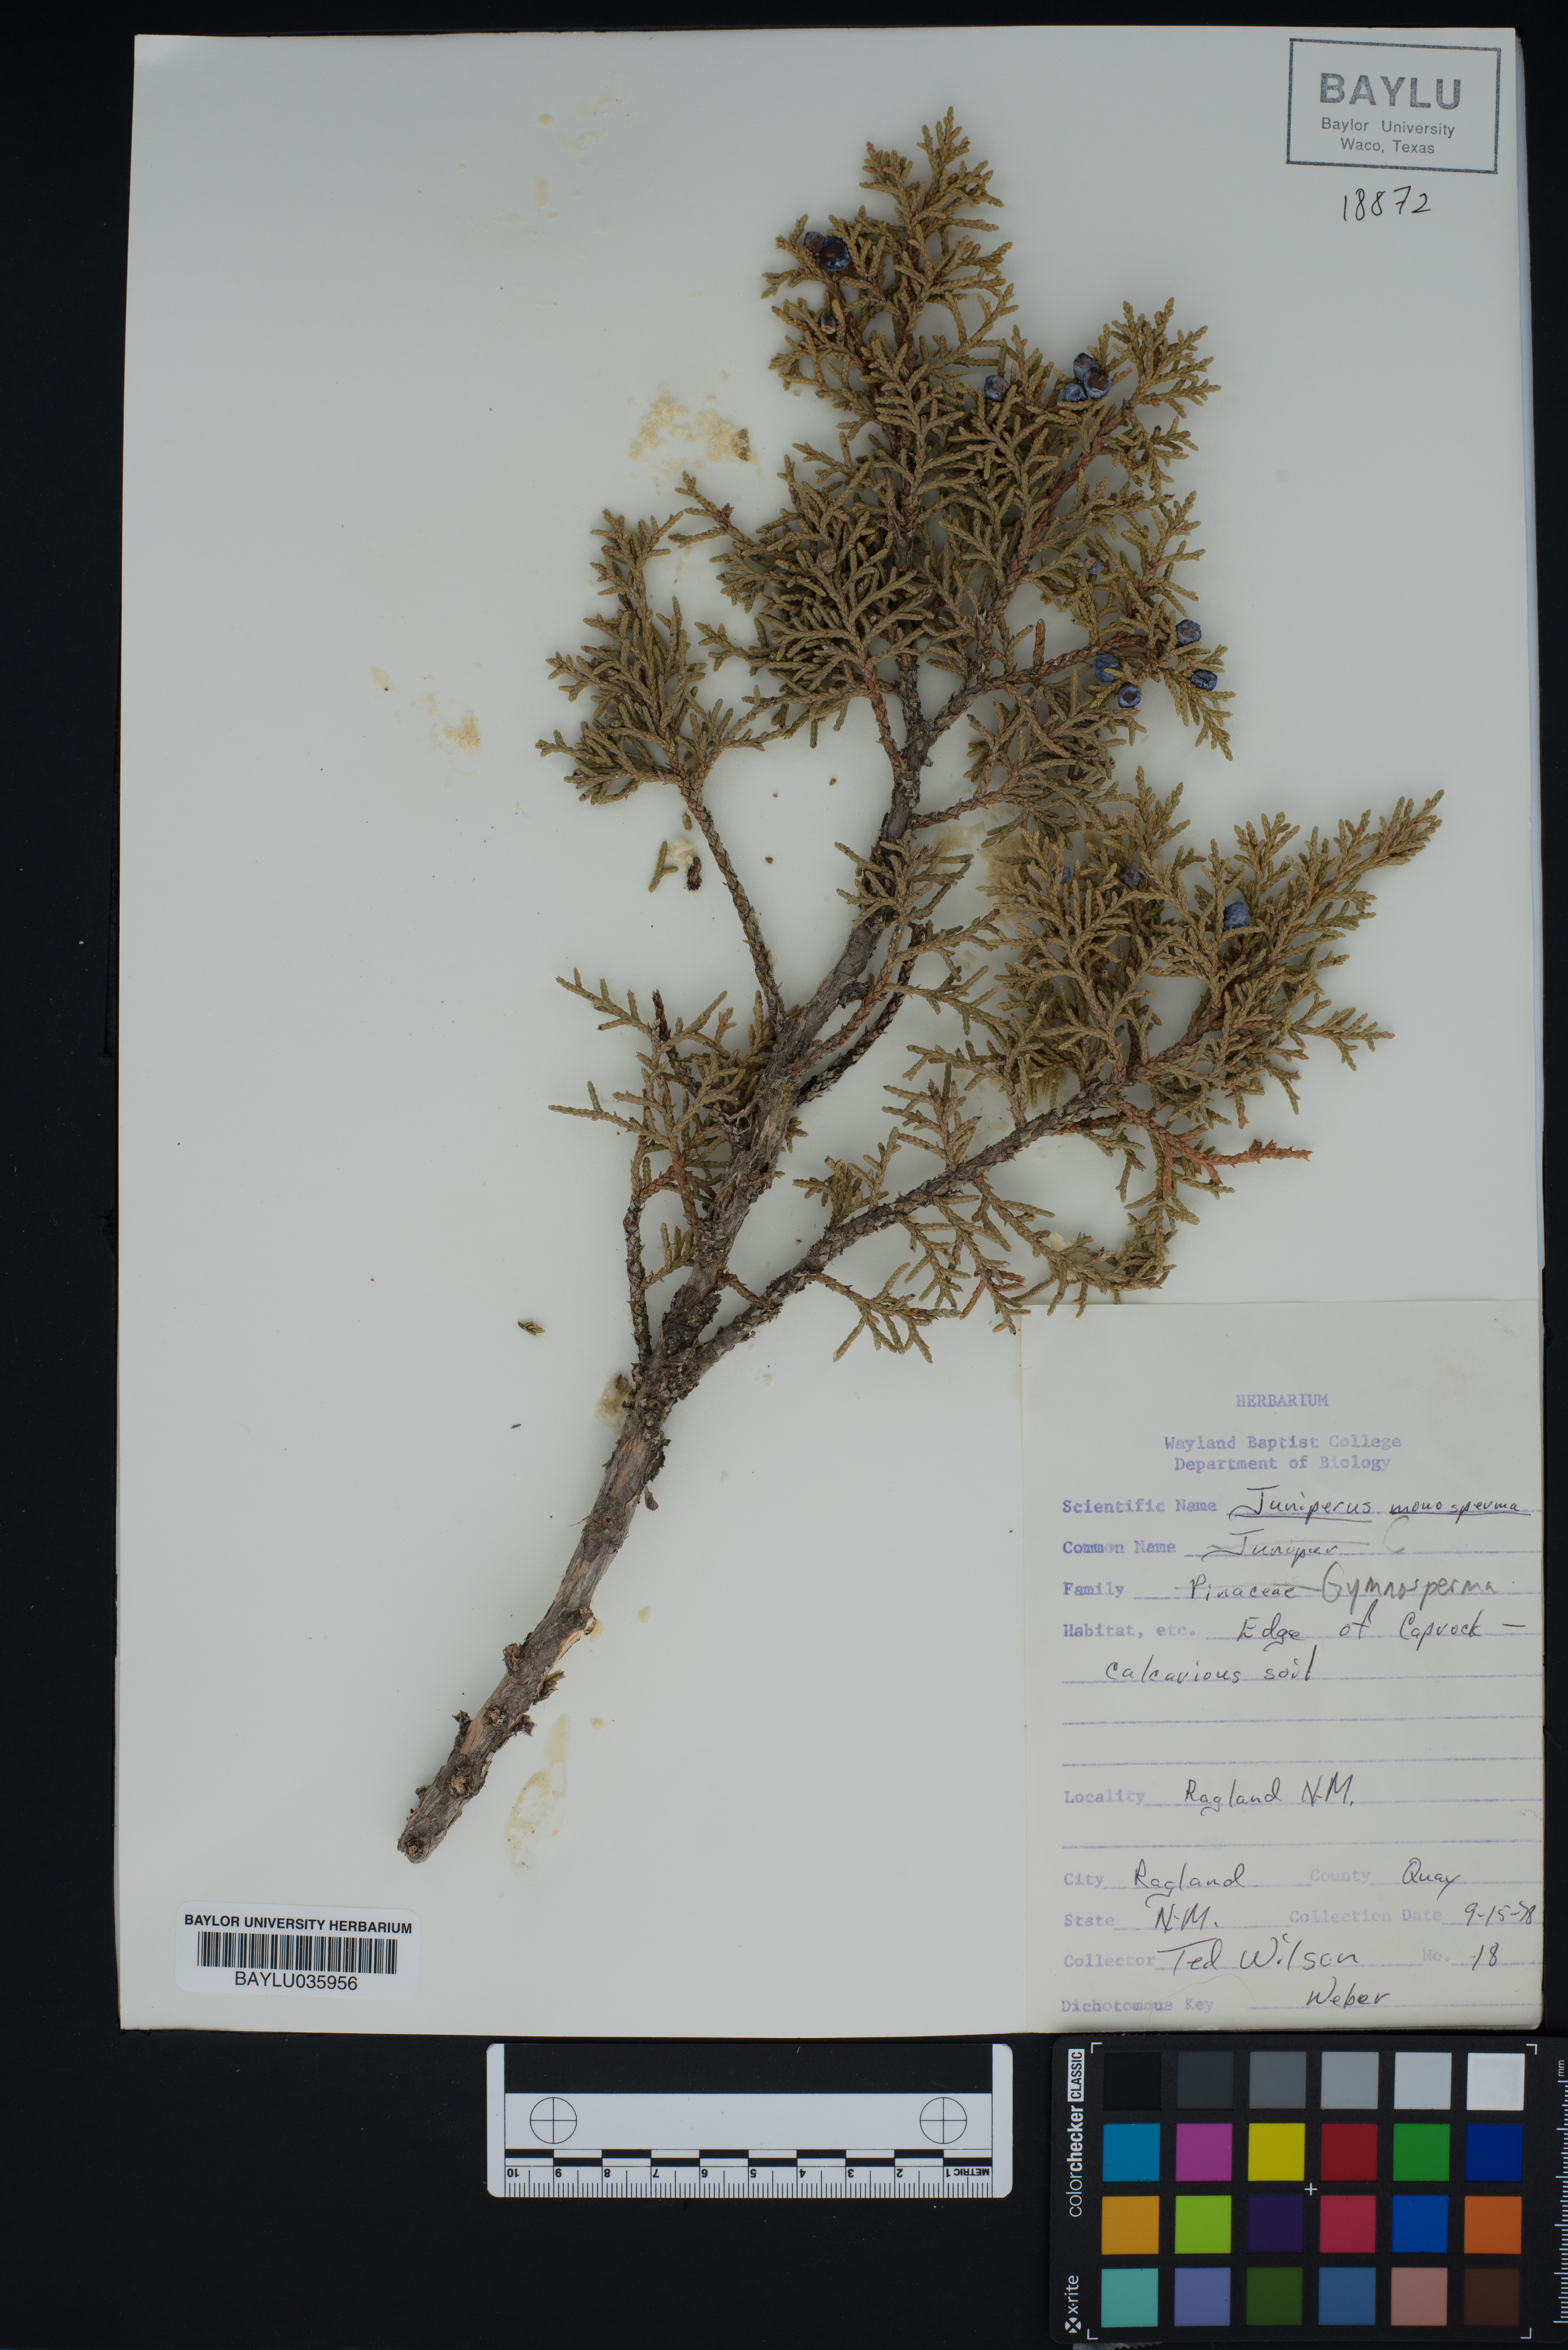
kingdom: Plantae
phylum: Tracheophyta
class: Pinopsida
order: Pinales
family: Cupressaceae
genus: Juniperus
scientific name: Juniperus monosperma
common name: One-seed juniper
